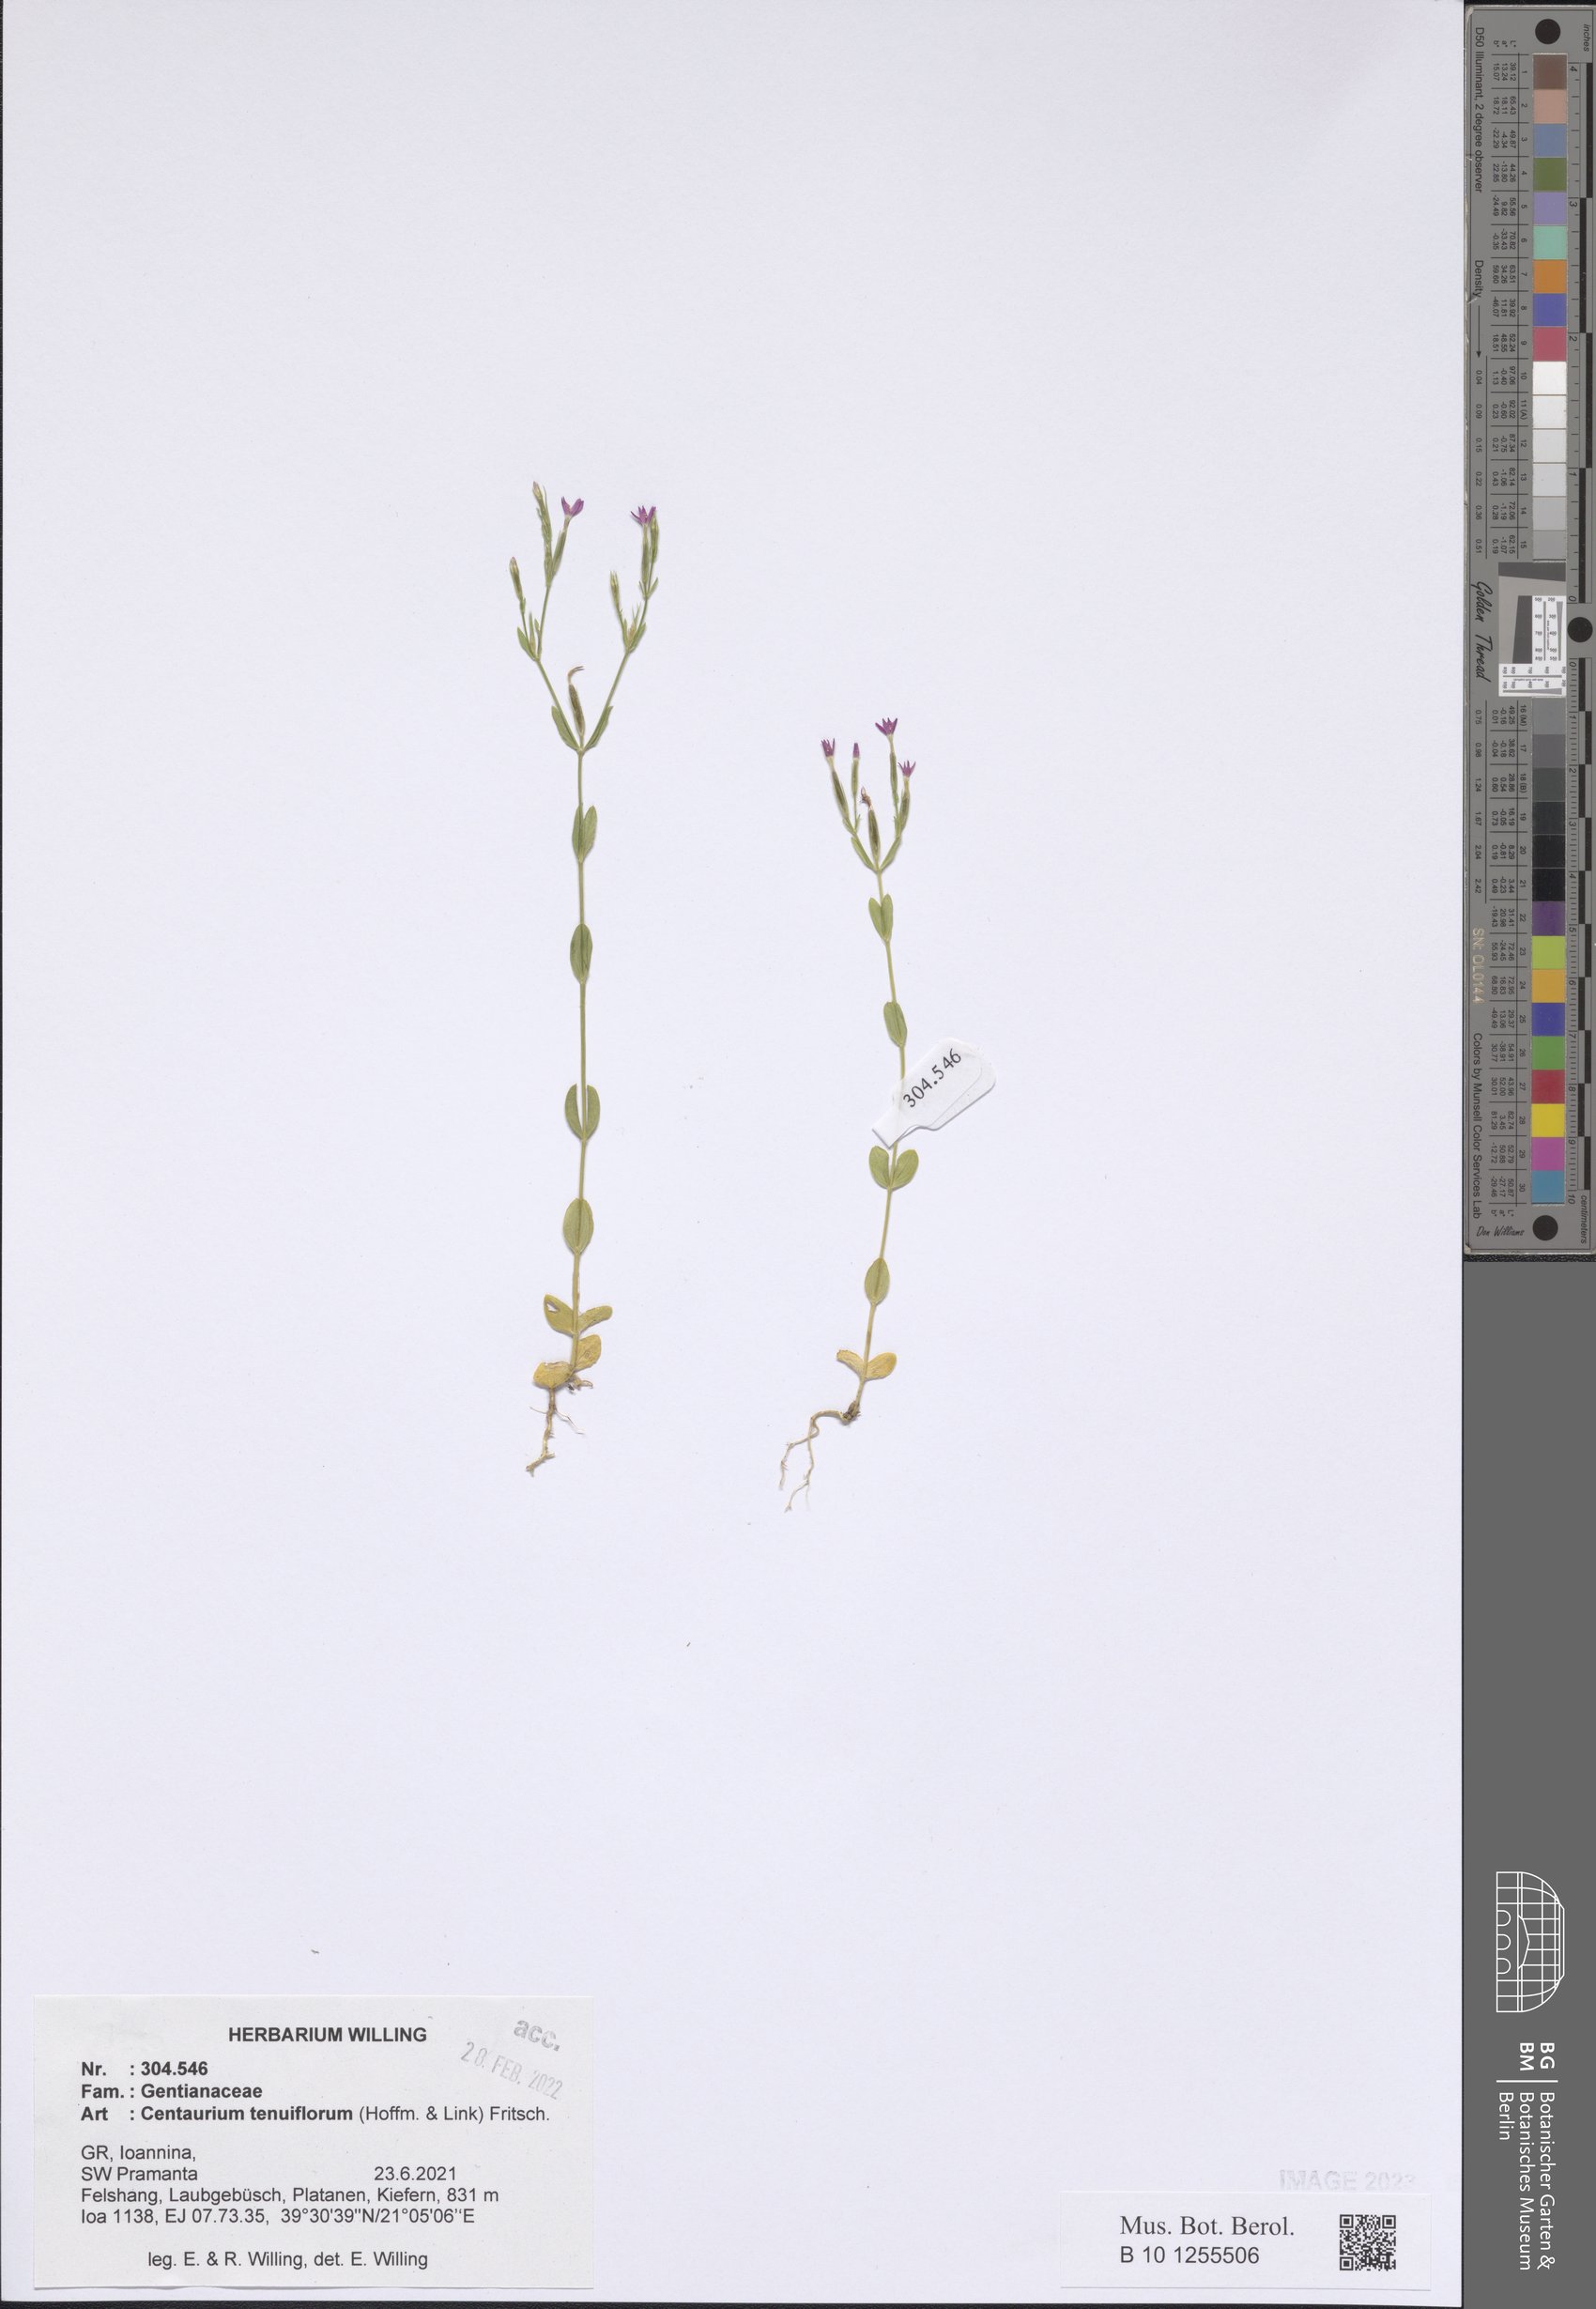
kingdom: Plantae
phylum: Tracheophyta
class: Magnoliopsida
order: Gentianales
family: Gentianaceae
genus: Centaurium
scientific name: Centaurium tenuiflorum
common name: Slender centaury
